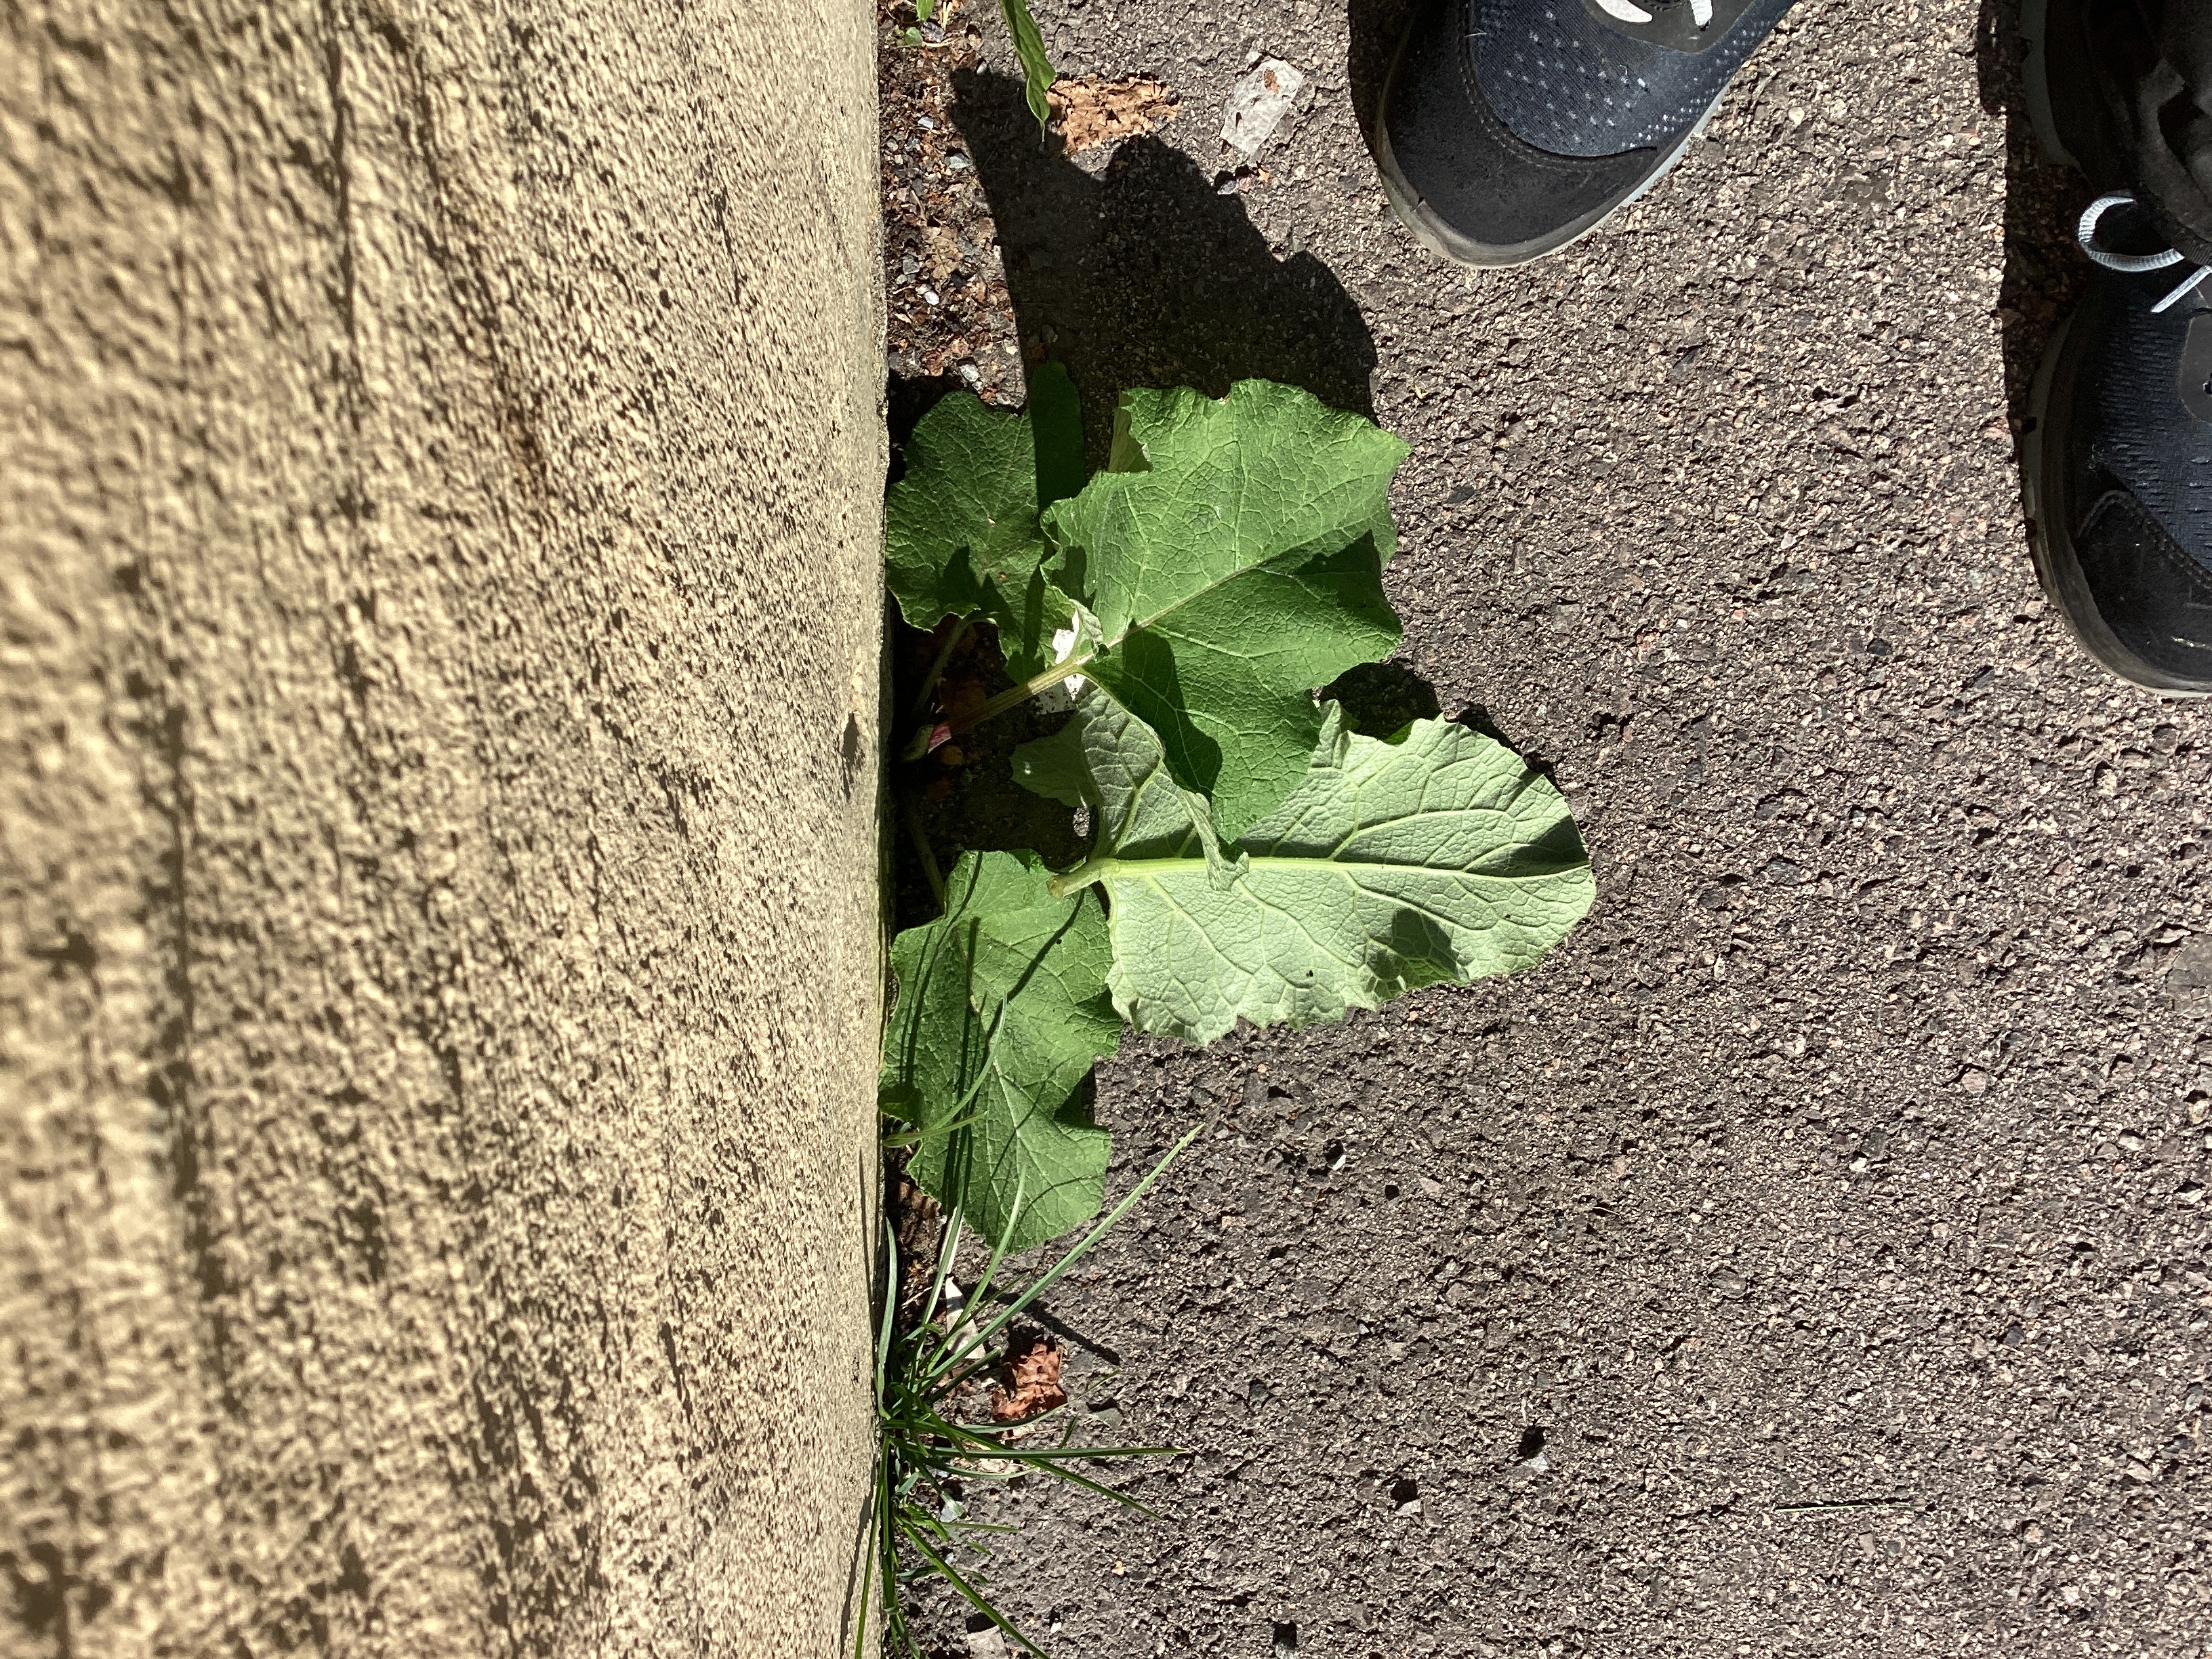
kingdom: Plantae
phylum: Tracheophyta
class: Magnoliopsida
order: Asterales
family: Asteraceae
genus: Arctium
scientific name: Arctium tomentosum
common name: ullborre
